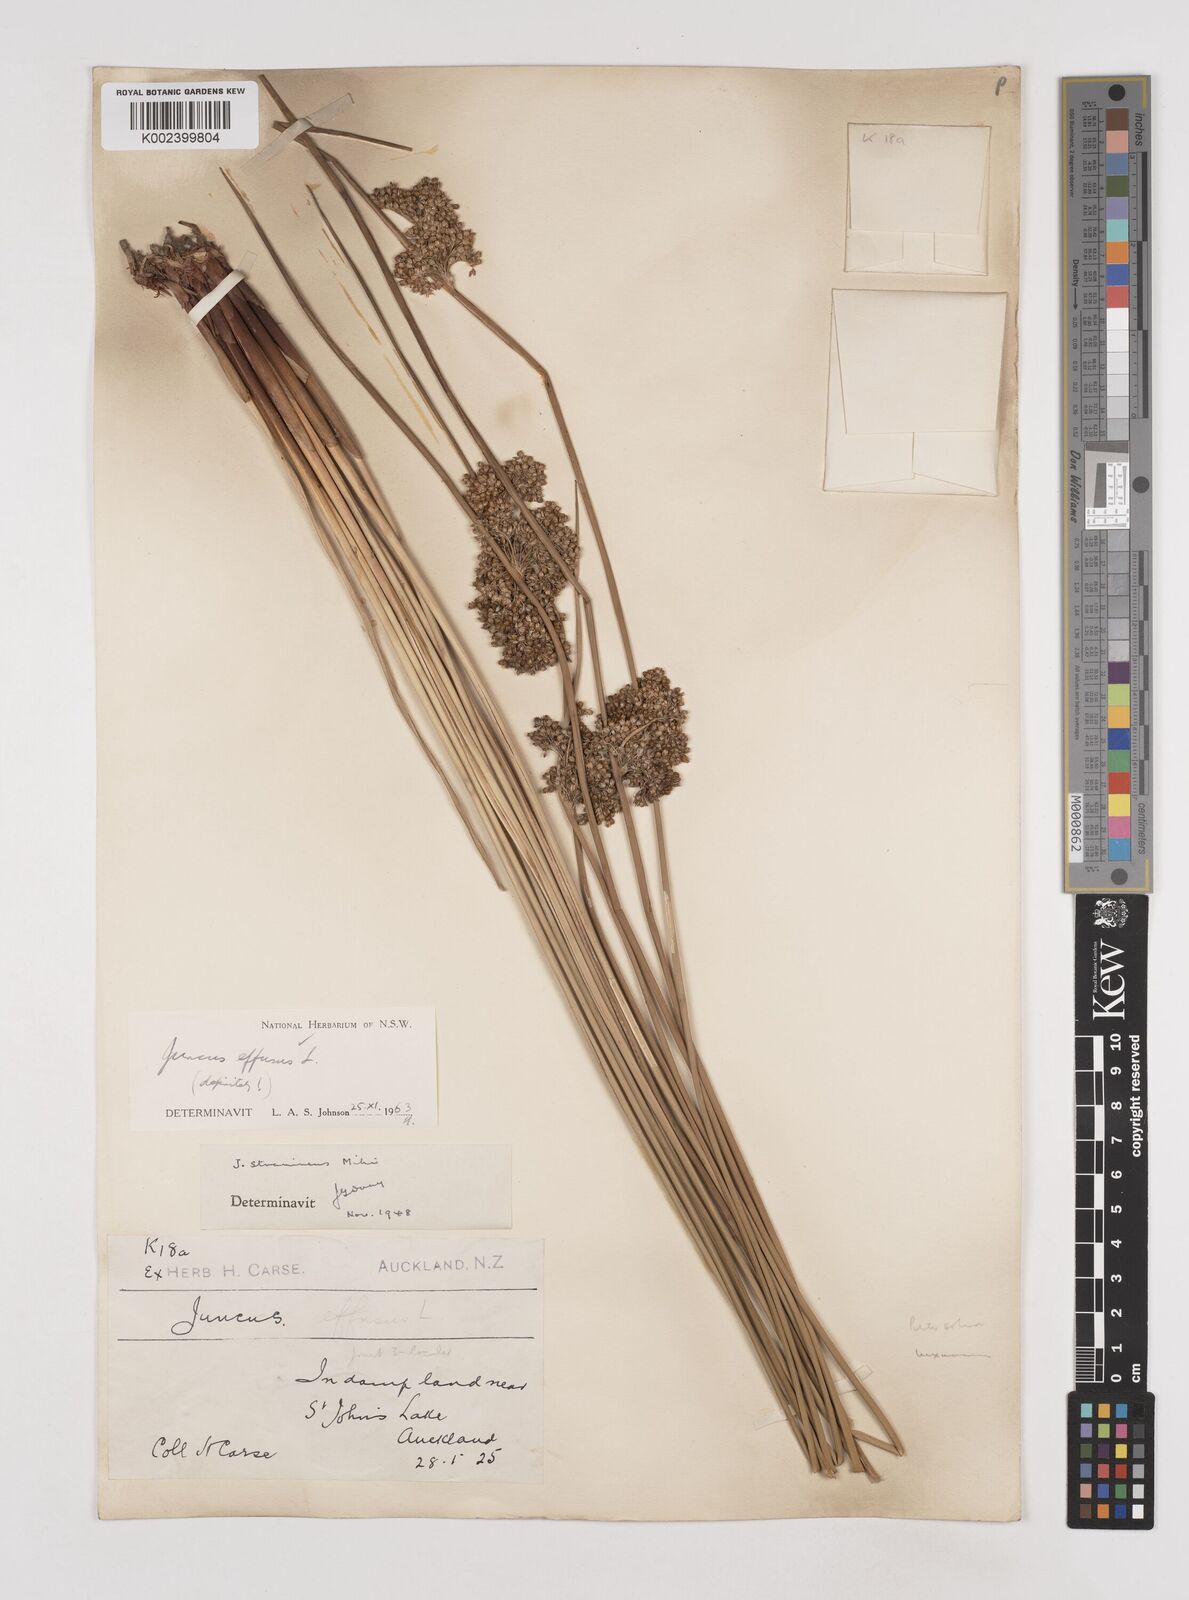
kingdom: Plantae
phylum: Tracheophyta
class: Liliopsida
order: Poales
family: Juncaceae
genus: Juncus
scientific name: Juncus effusus
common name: Soft rush
